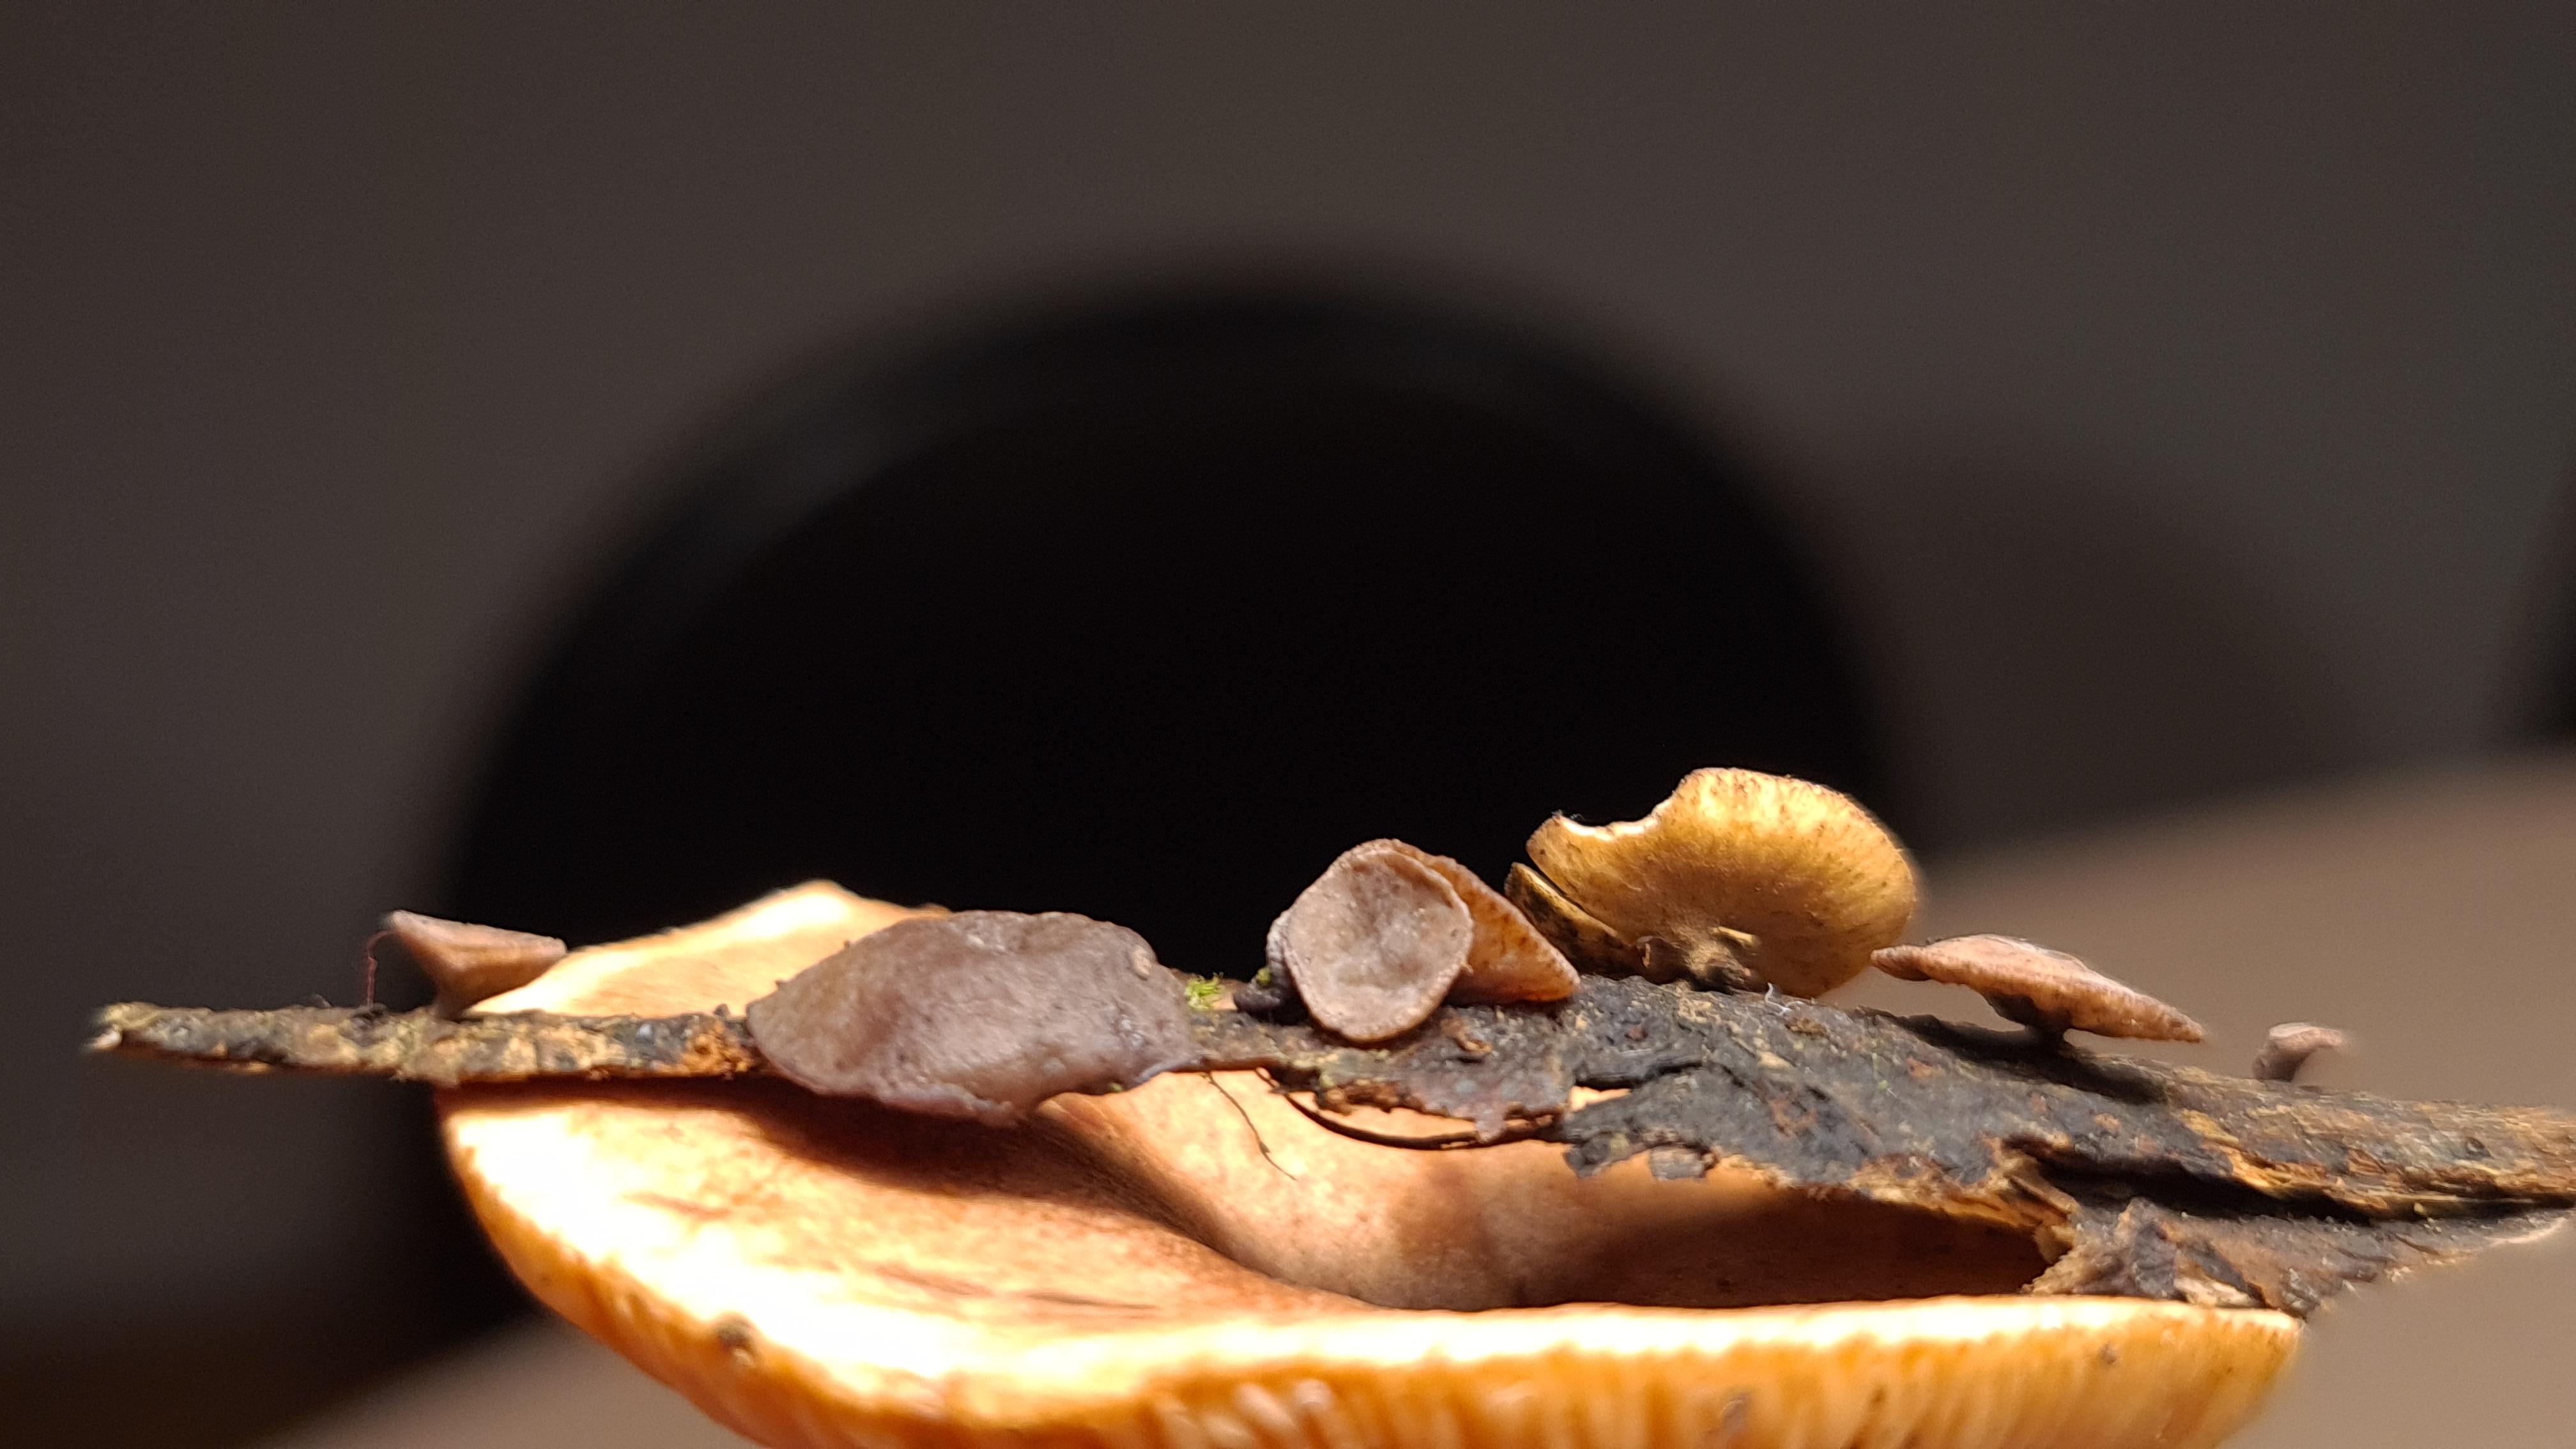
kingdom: Fungi
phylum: Ascomycota
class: Leotiomycetes
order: Helotiales
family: Rutstroemiaceae
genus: Rutstroemia
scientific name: Rutstroemia firma
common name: gren-brunskive
